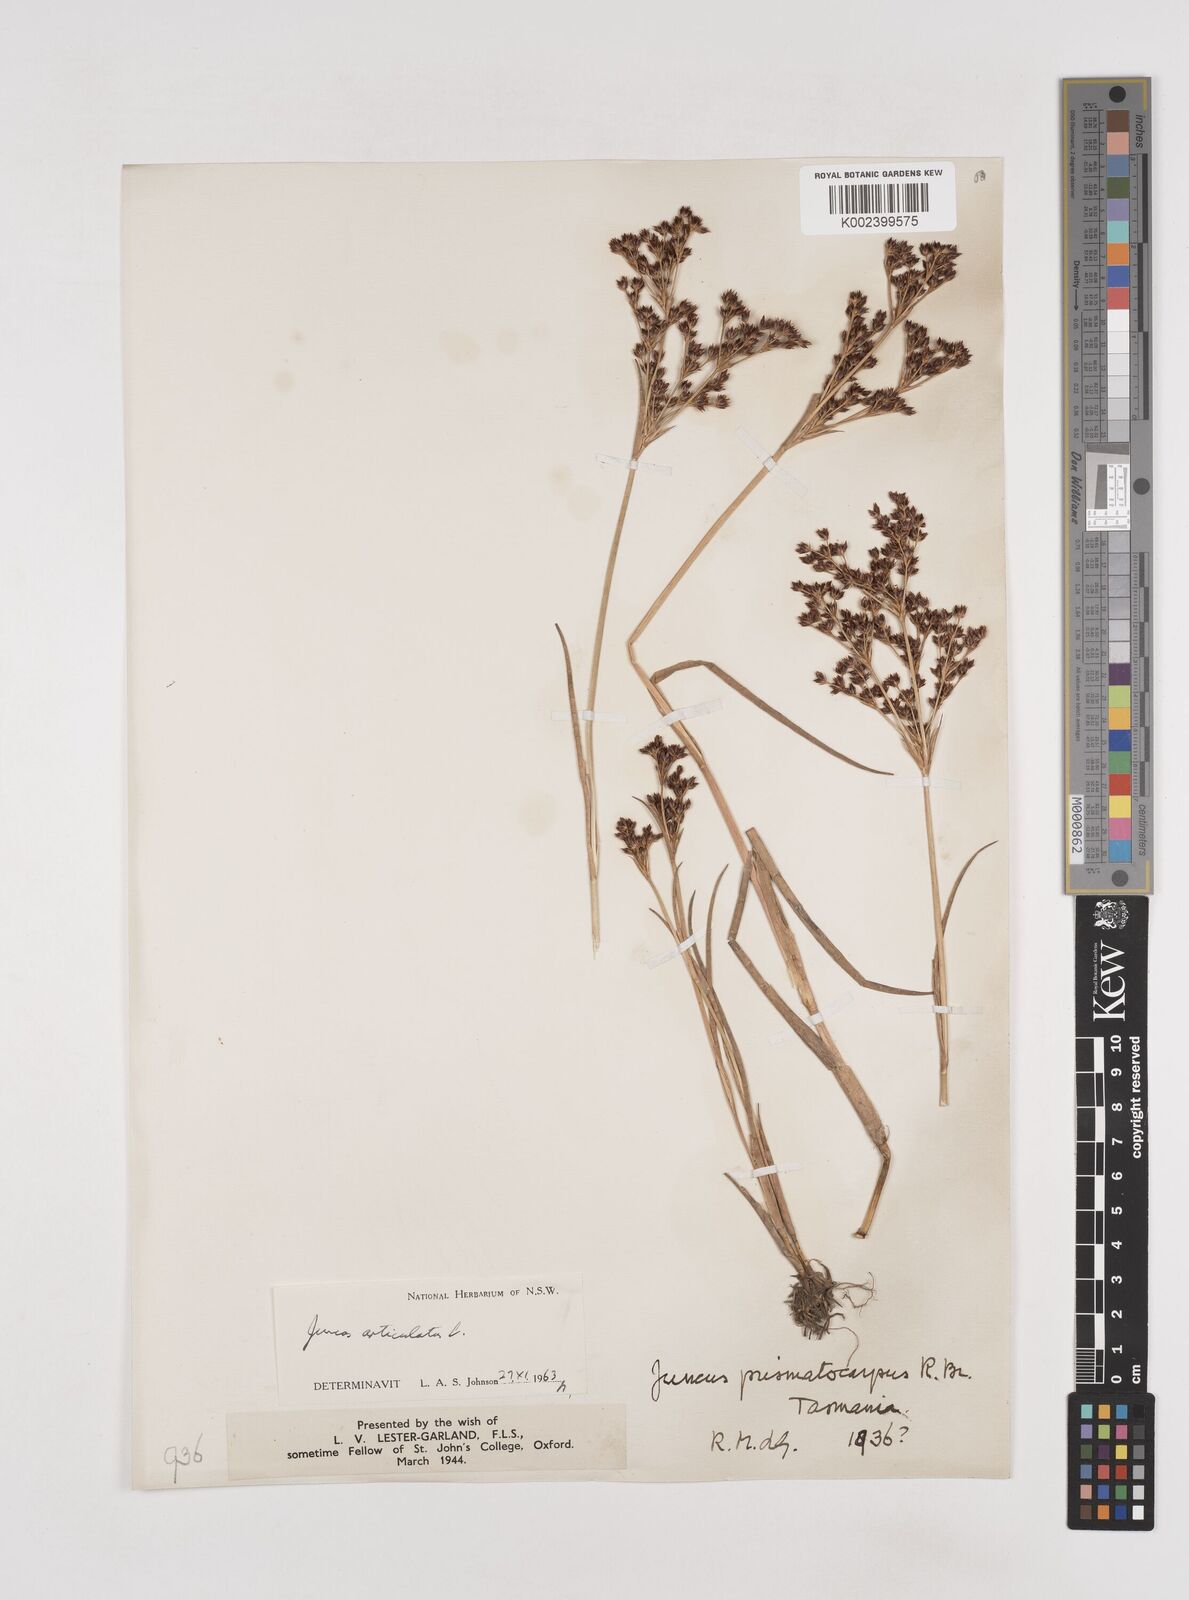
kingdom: Plantae
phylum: Tracheophyta
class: Liliopsida
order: Poales
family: Juncaceae
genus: Juncus
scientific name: Juncus articulatus
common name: Jointed rush
